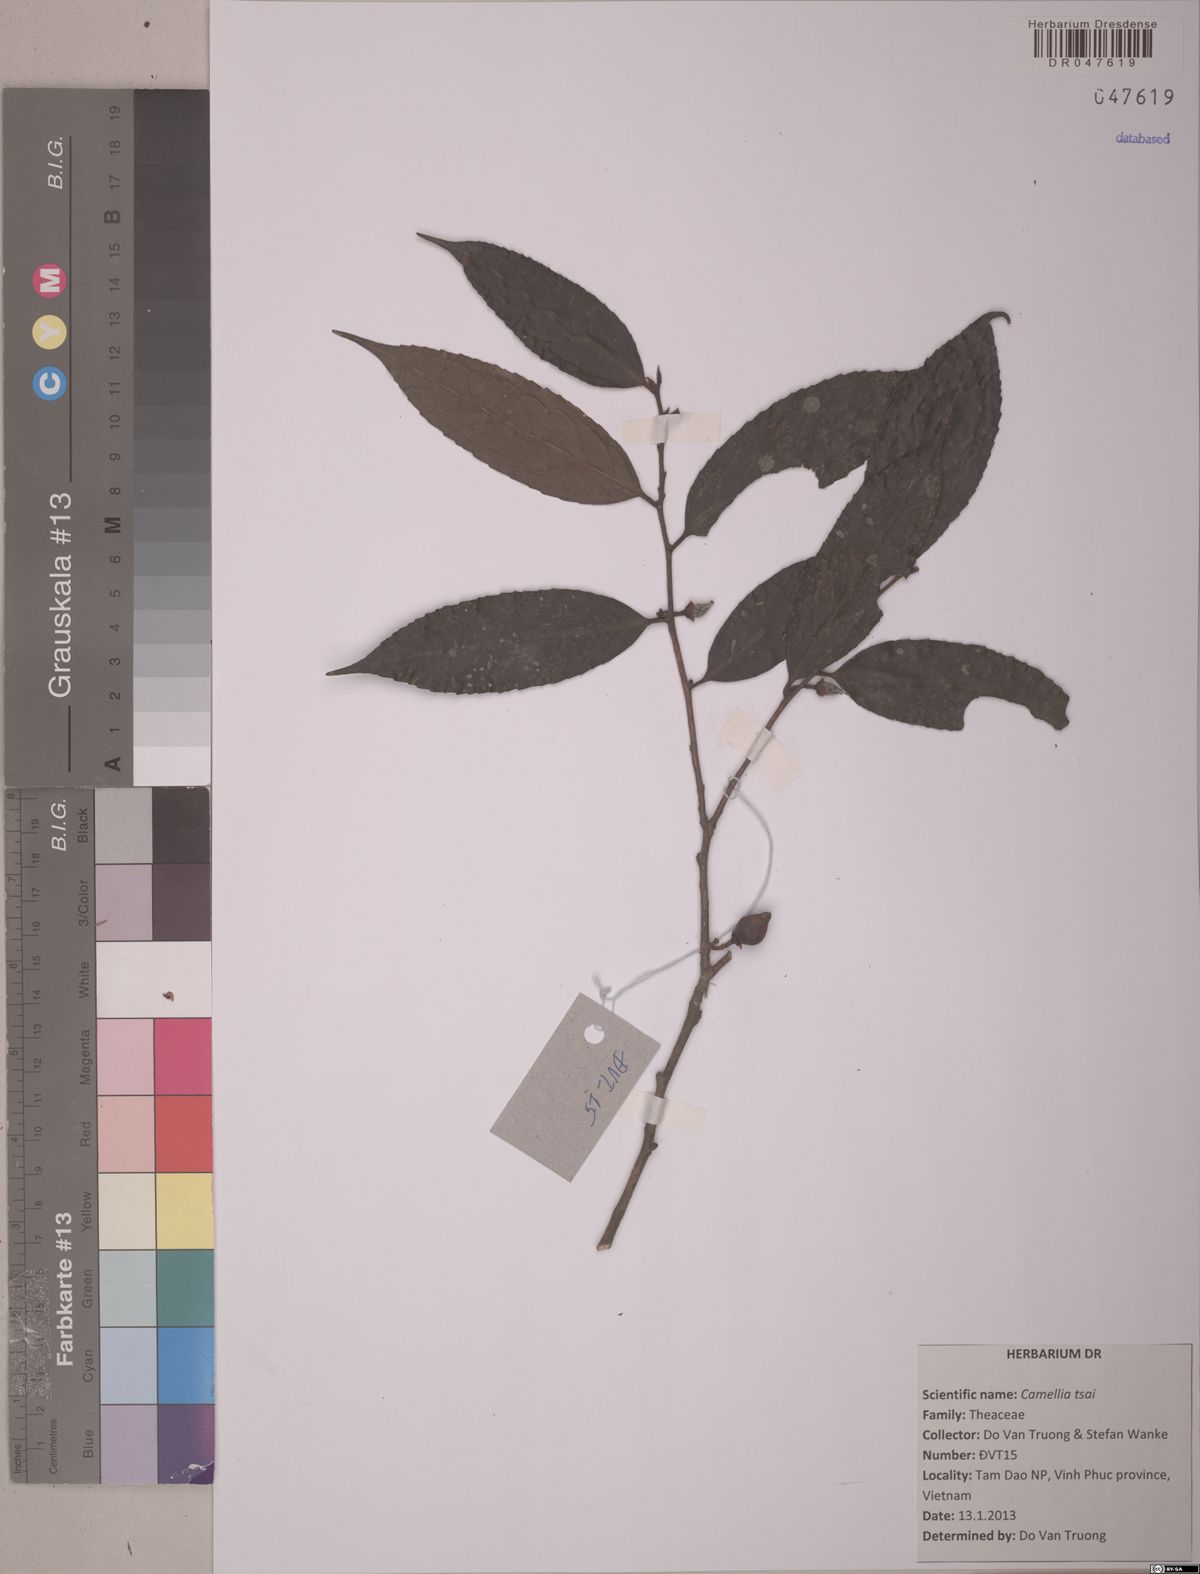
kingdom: Plantae
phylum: Tracheophyta
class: Magnoliopsida
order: Ericales
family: Theaceae
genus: Camellia
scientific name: Camellia tsaii
